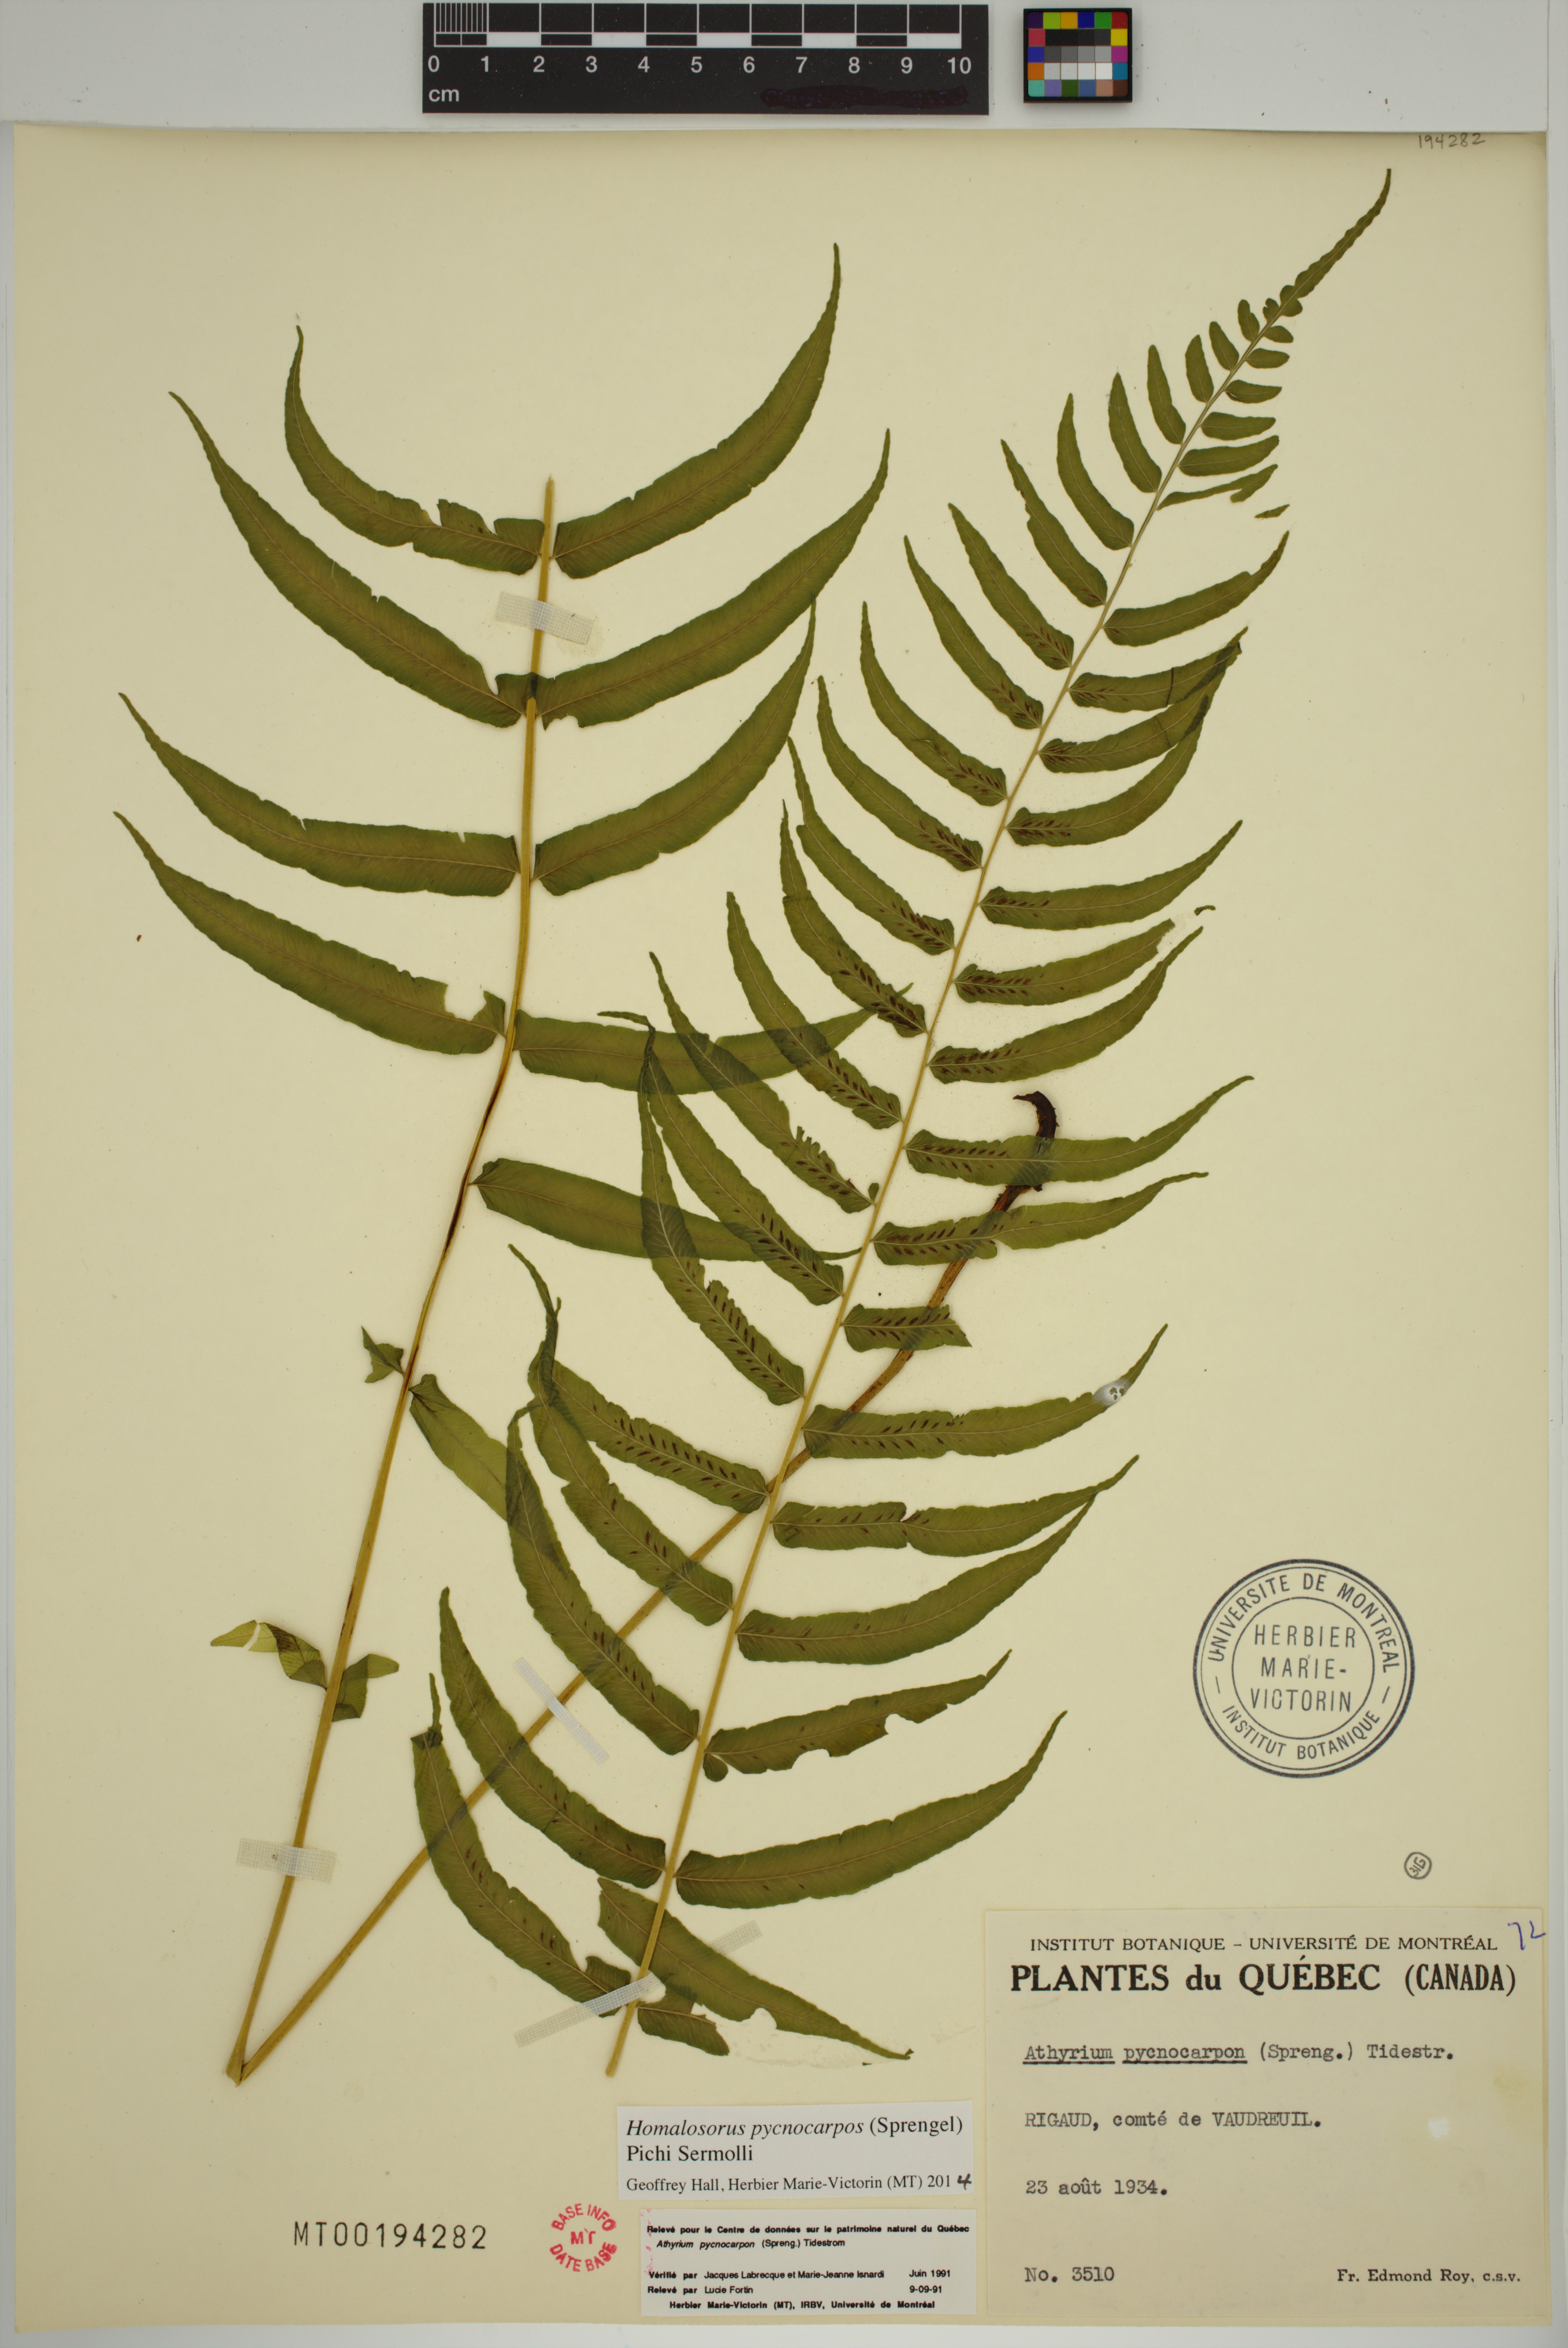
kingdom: Plantae
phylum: Tracheophyta
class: Polypodiopsida
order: Polypodiales
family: Diplaziopsidaceae
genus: Homalosorus
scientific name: Homalosorus pycnocarpos
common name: Glade fern
